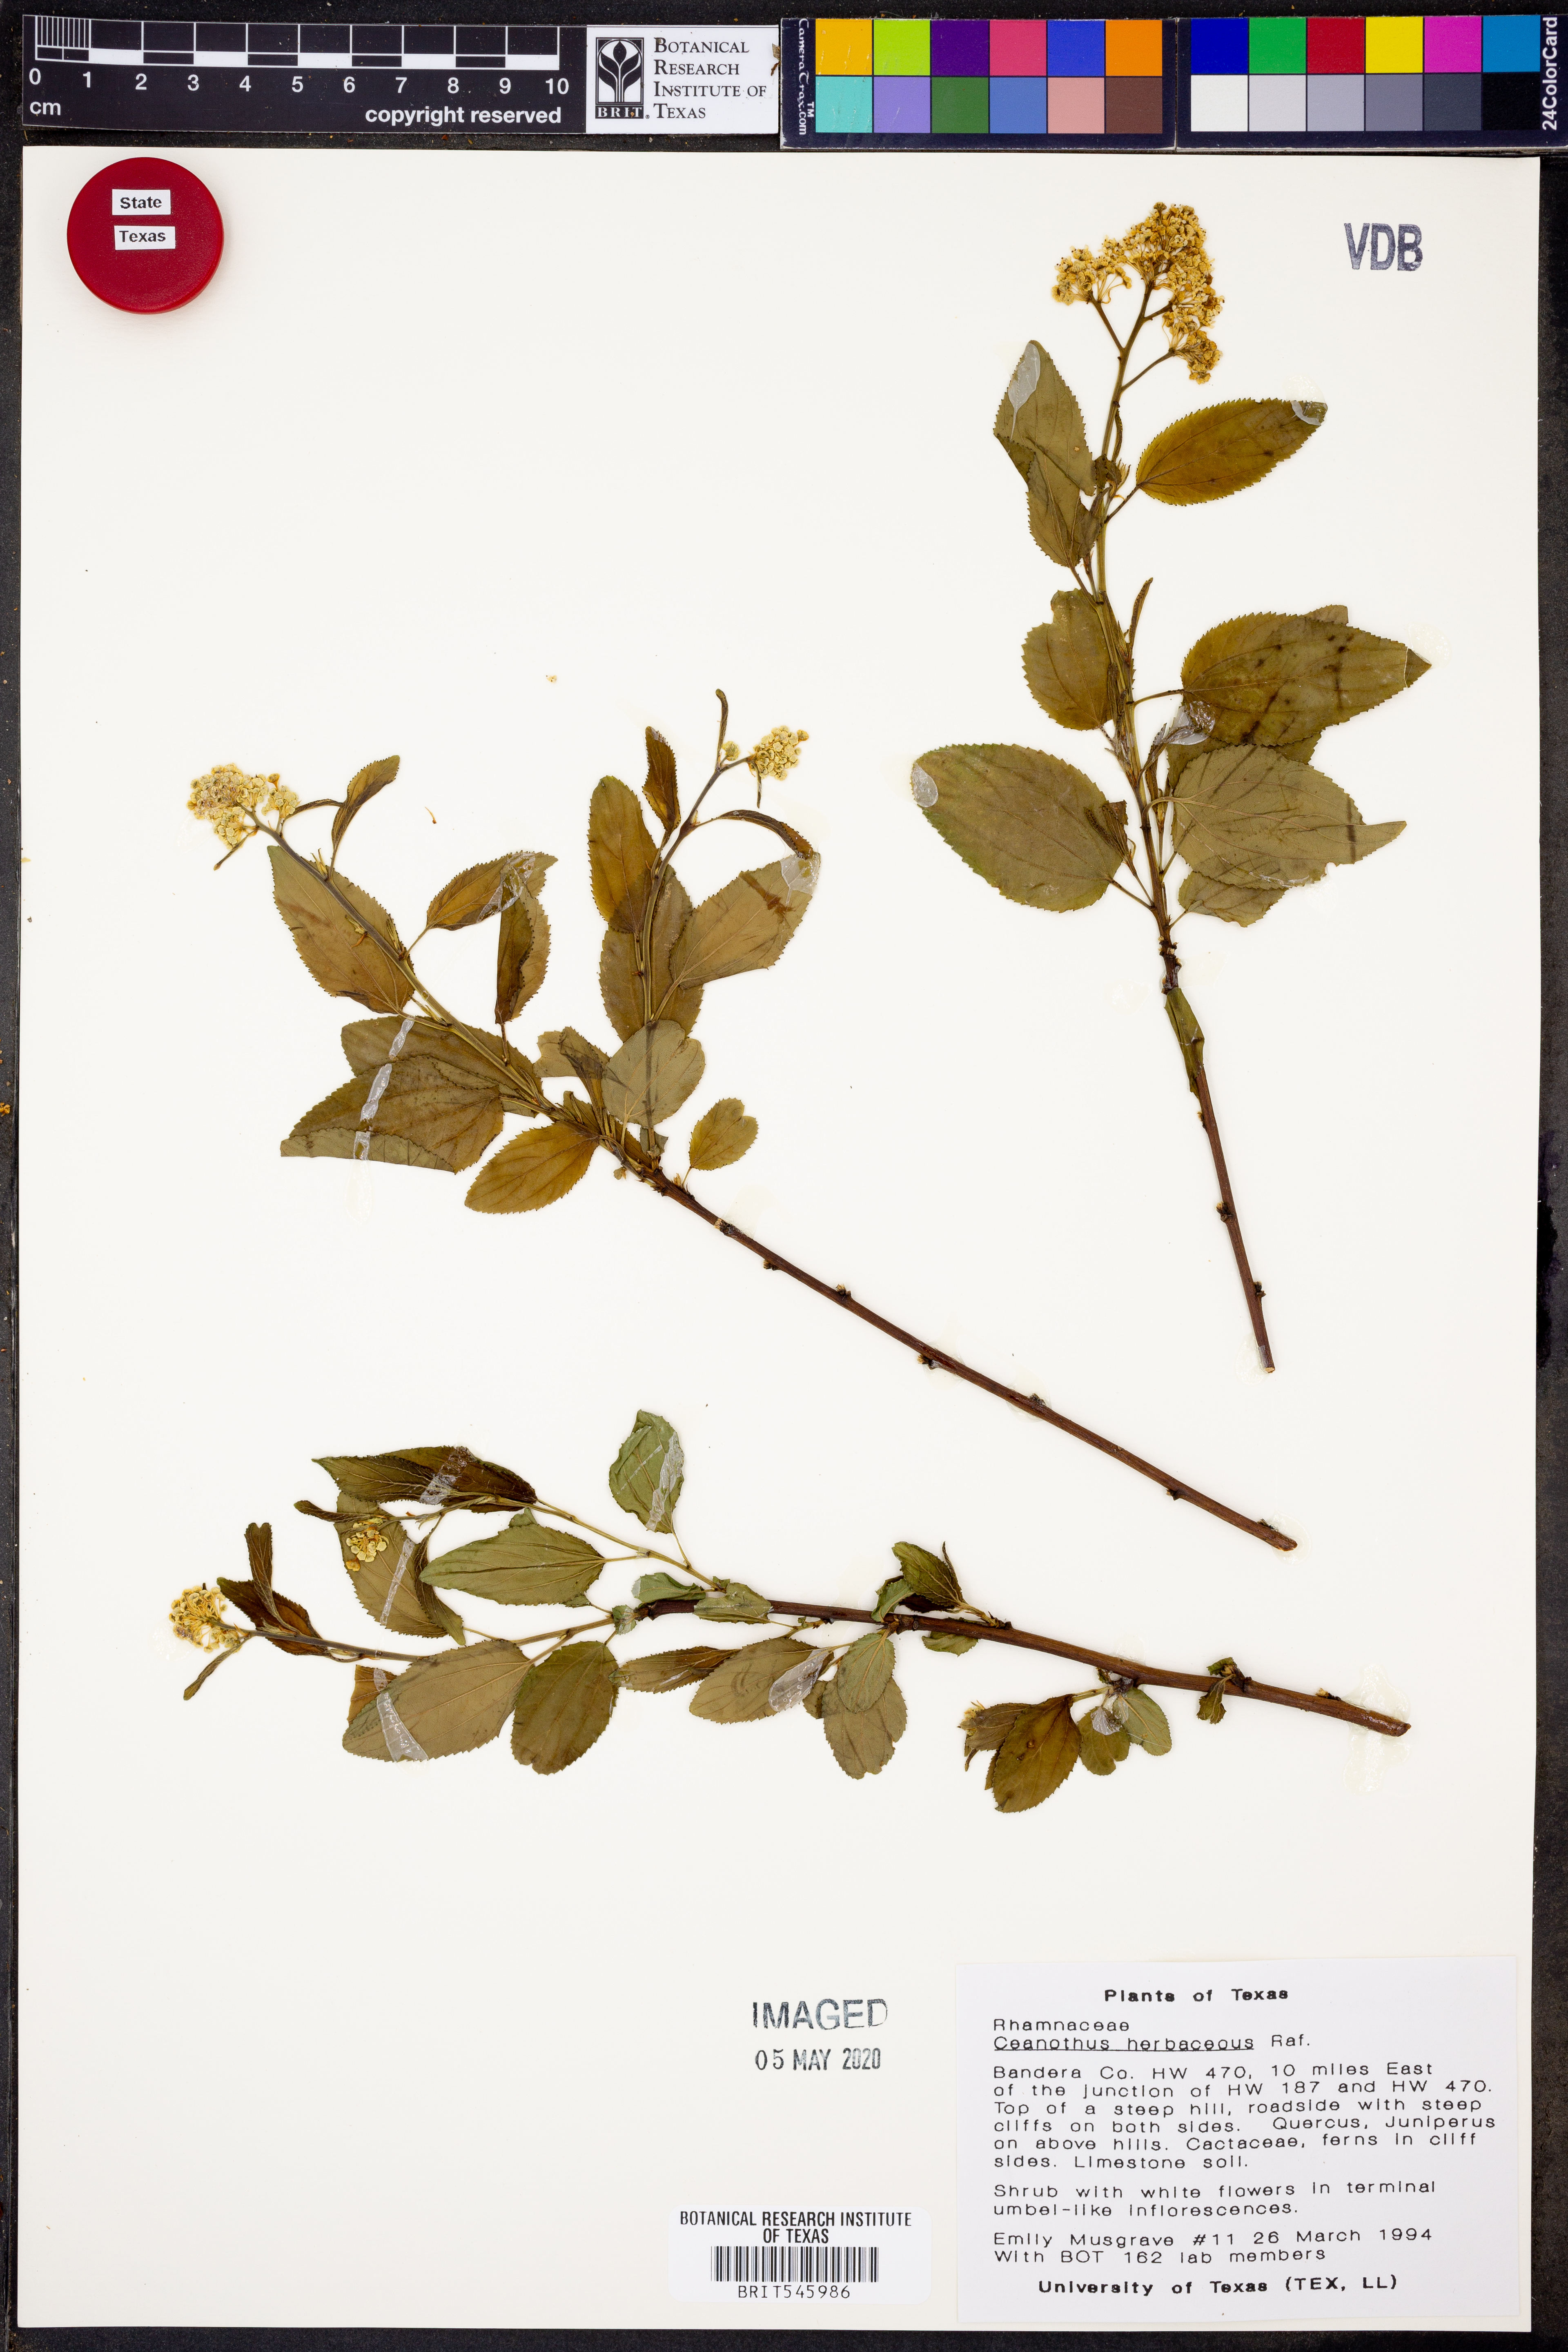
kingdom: Plantae
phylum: Tracheophyta
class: Magnoliopsida
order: Rosales
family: Rhamnaceae
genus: Ceanothus
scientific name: Ceanothus herbaceus
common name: Inland ceanothus
